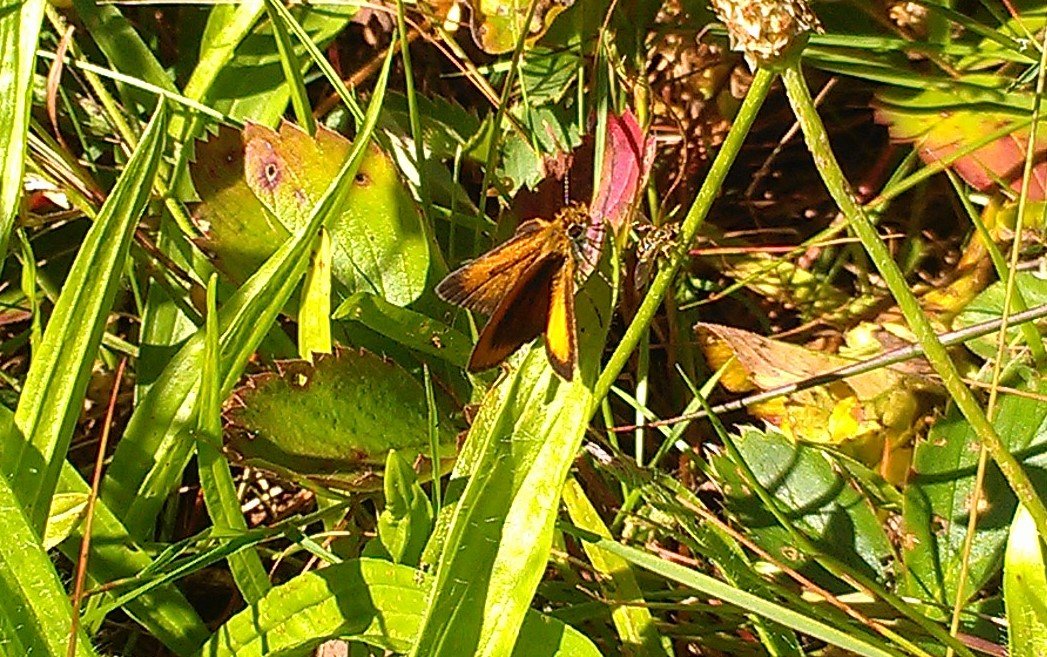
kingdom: Animalia
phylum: Arthropoda
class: Insecta
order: Lepidoptera
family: Hesperiidae
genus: Ancyloxypha
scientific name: Ancyloxypha numitor
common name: Least Skipper
